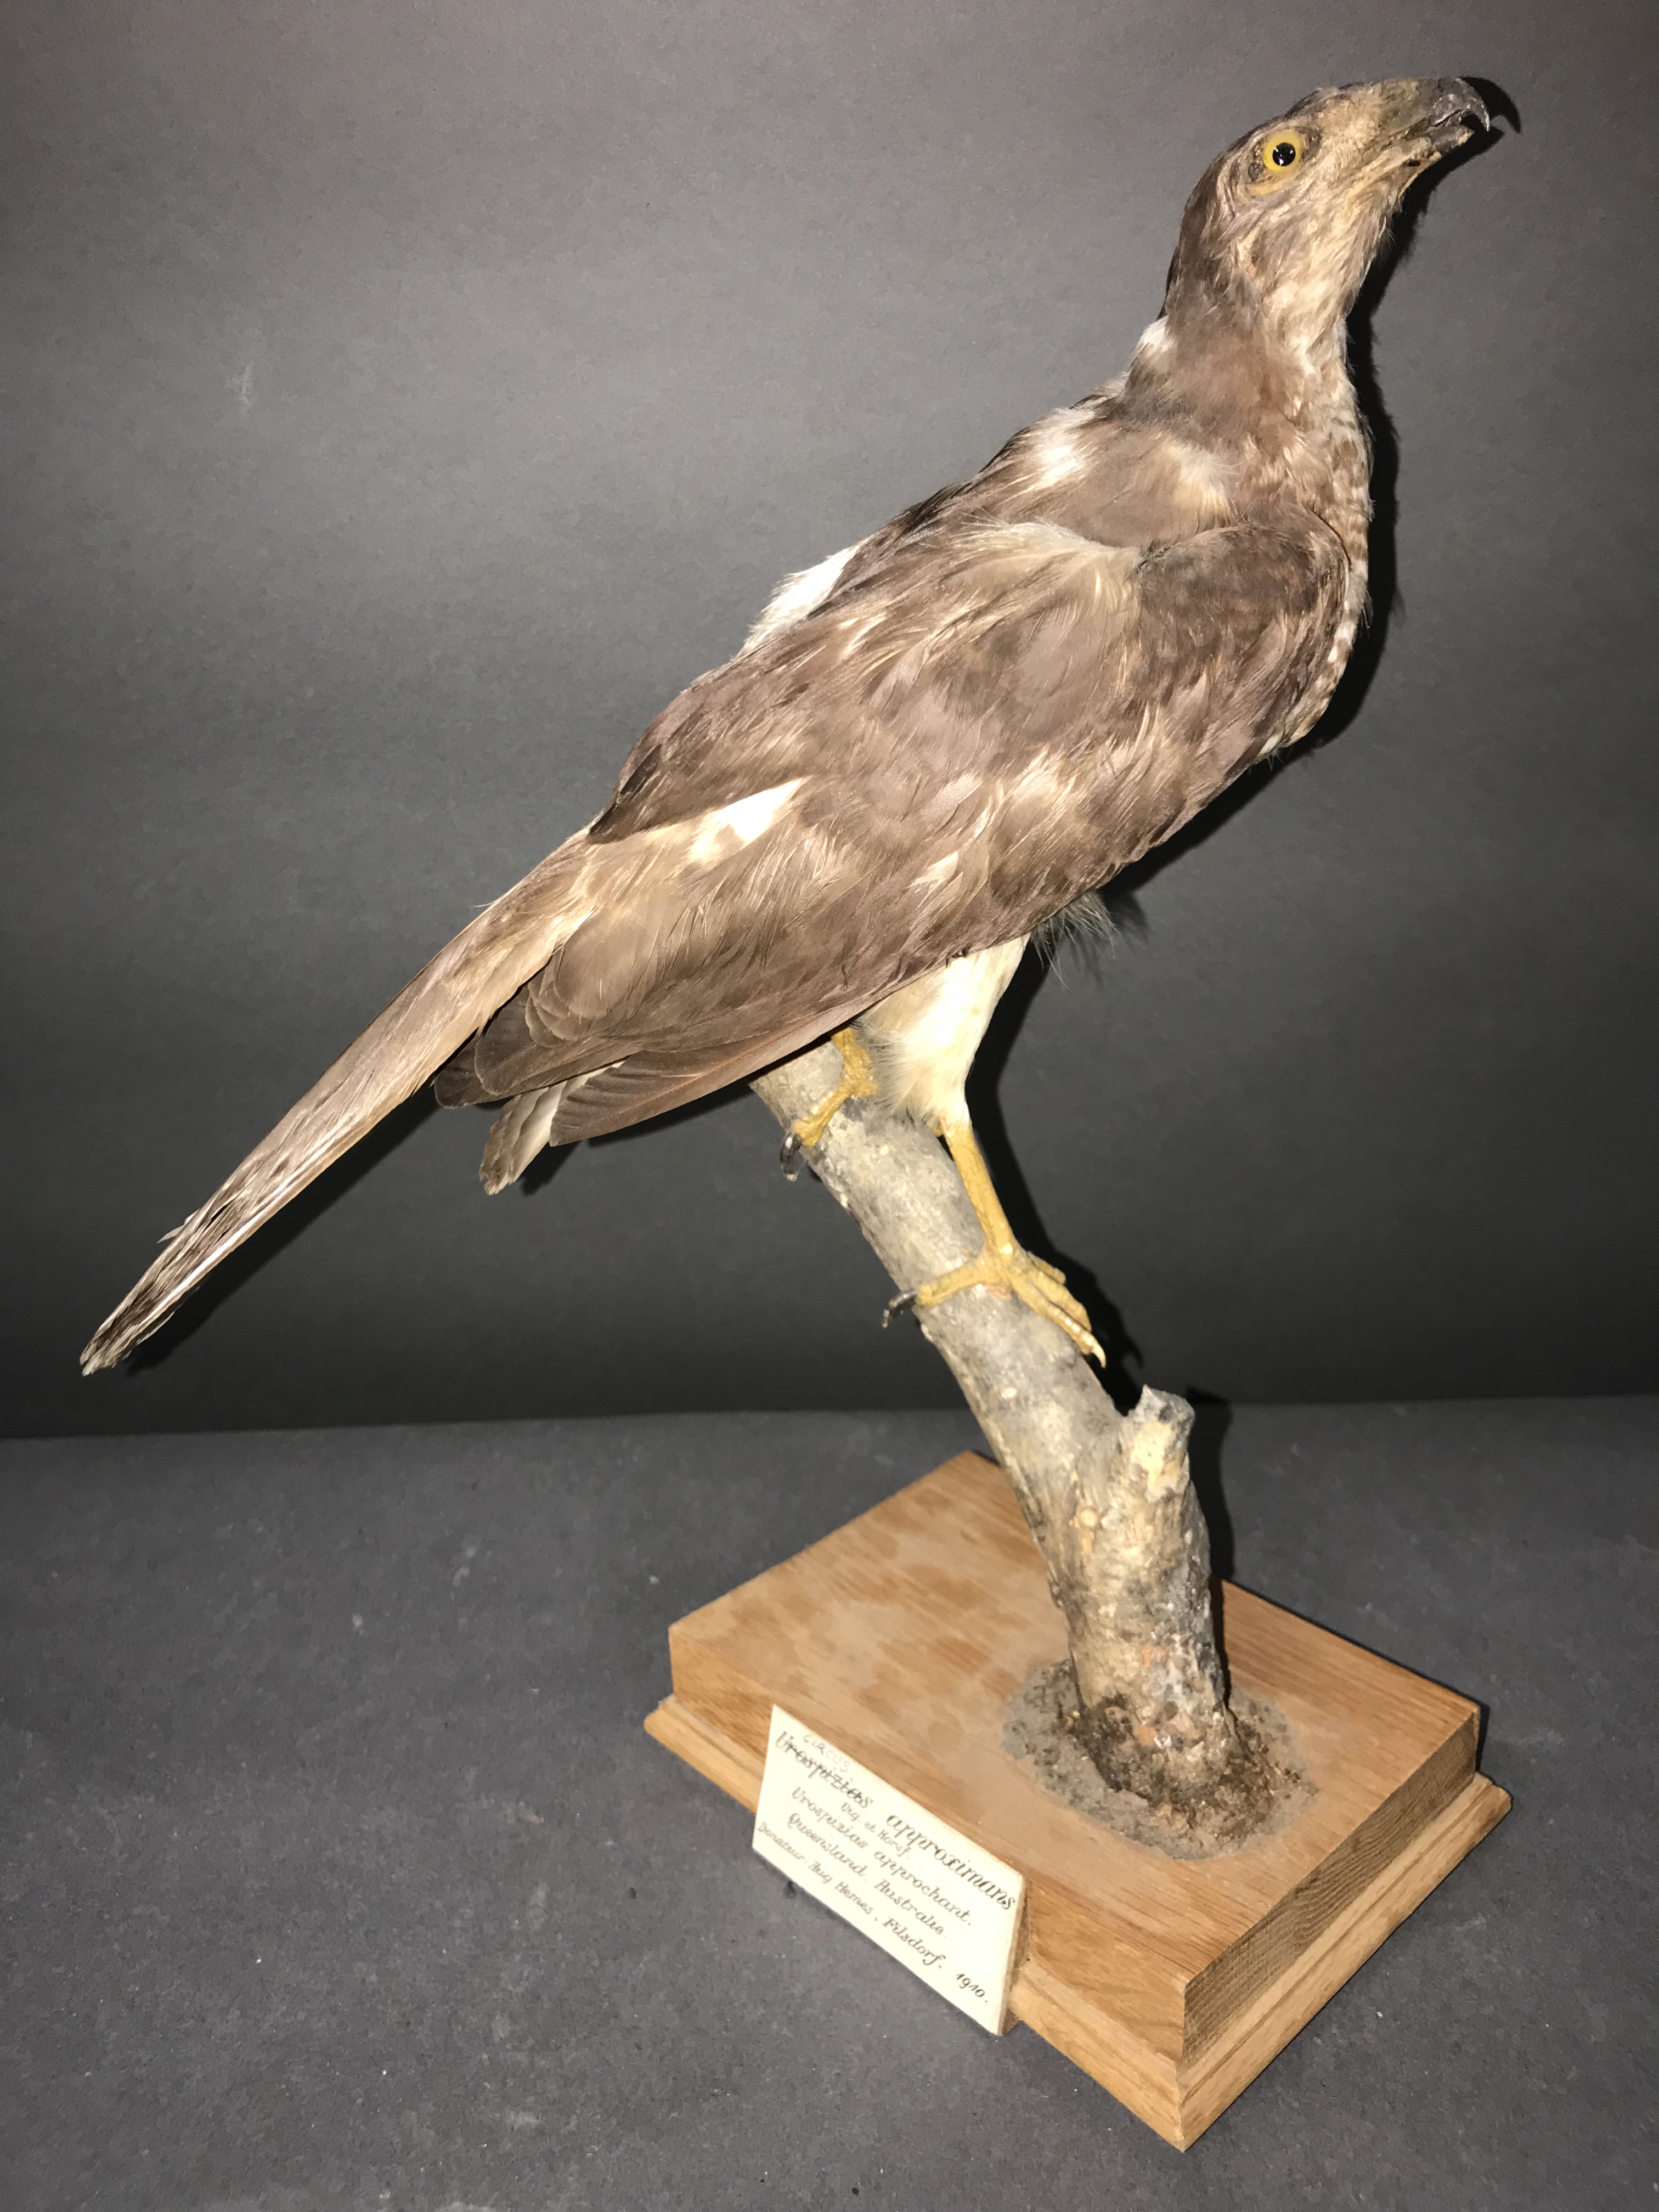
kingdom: Animalia
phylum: Chordata
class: Aves
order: Accipitriformes
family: Accipitridae
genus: Accipiter
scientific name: Accipiter cirrocephalus
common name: Collared sparrowhawk
